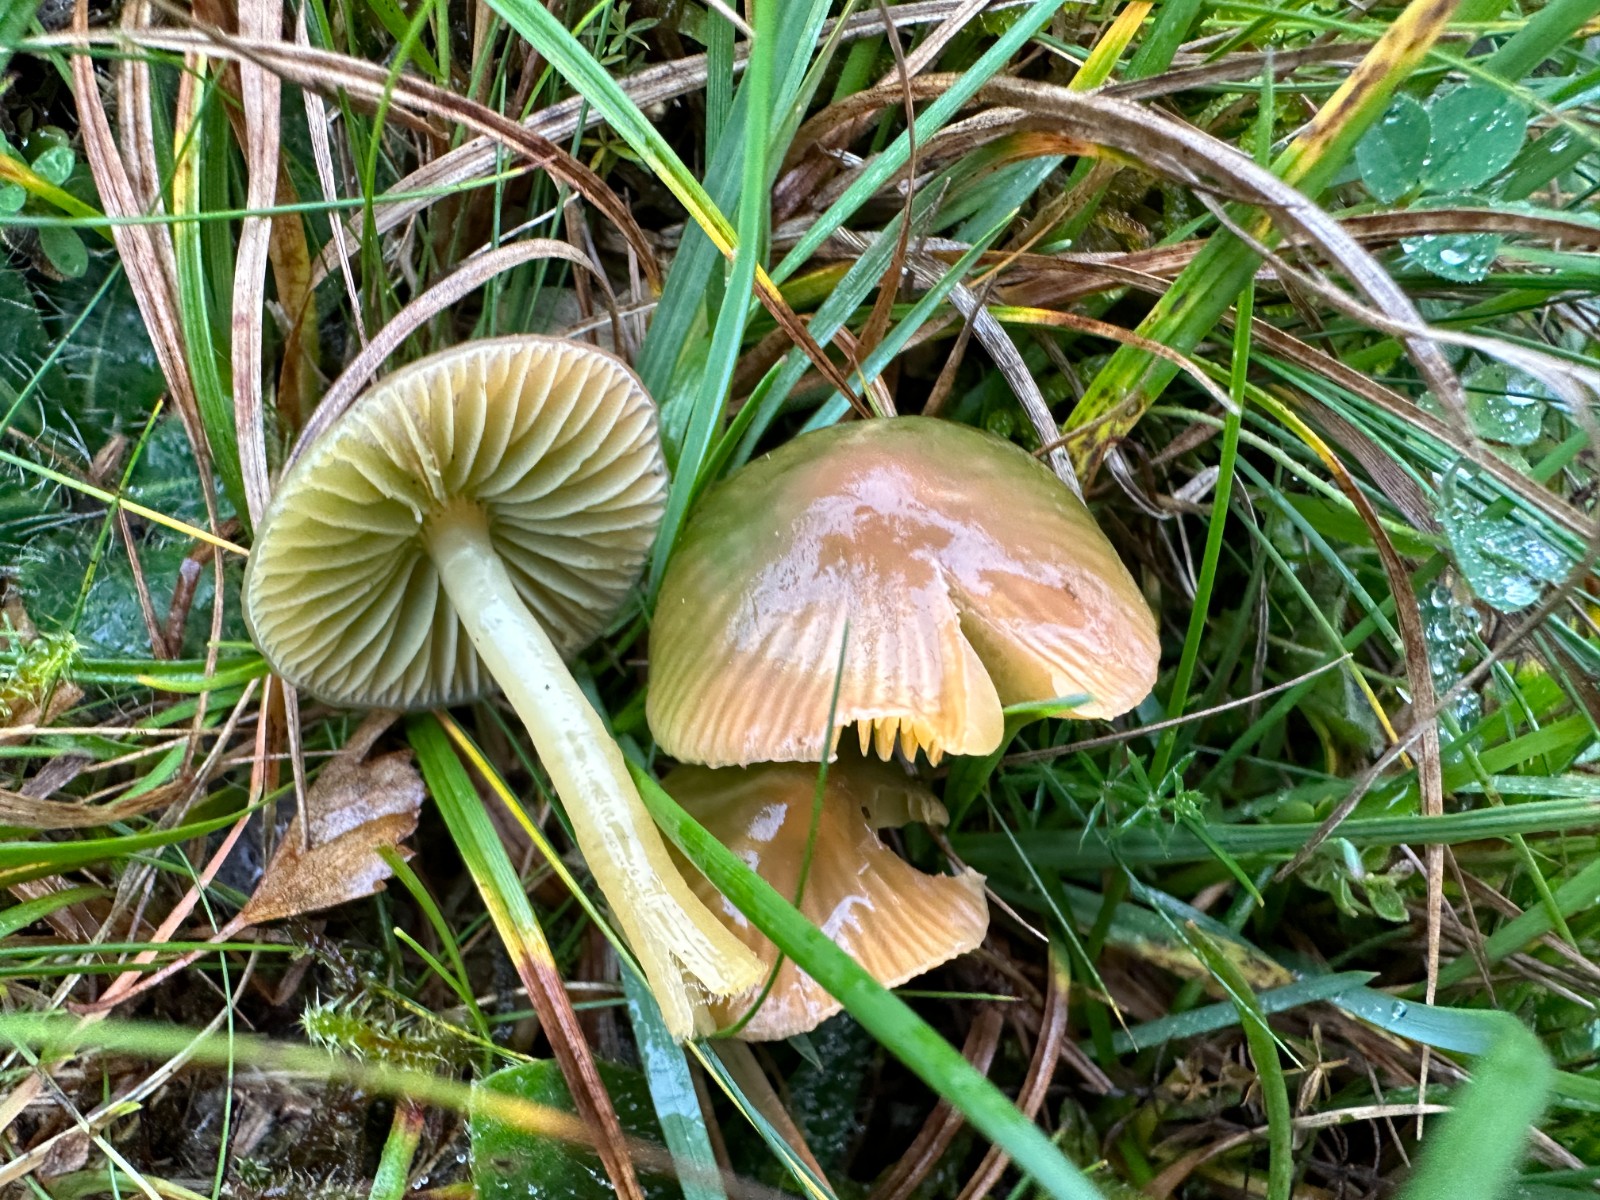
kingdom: Fungi
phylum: Basidiomycota
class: Agaricomycetes
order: Agaricales
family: Hygrophoraceae
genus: Gliophorus
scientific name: Gliophorus psittacinus
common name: papegøje-vokshat
